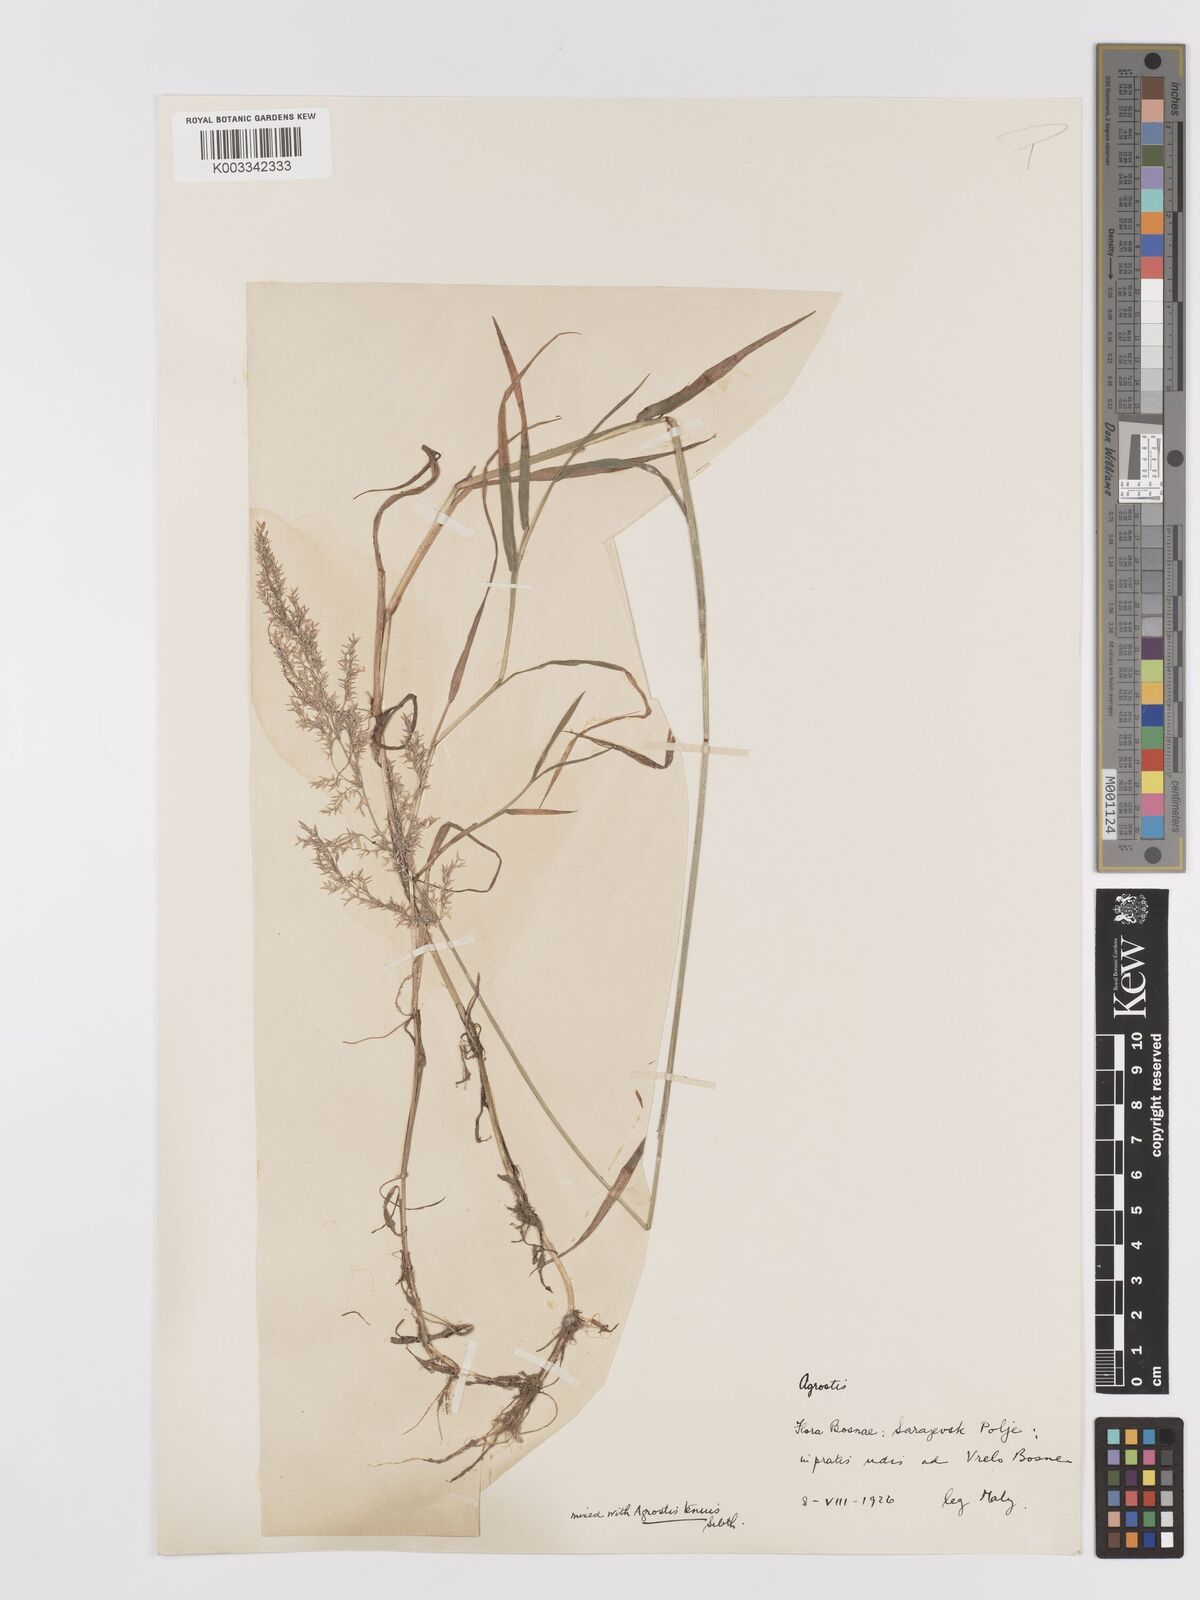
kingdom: Plantae
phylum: Tracheophyta
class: Liliopsida
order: Poales
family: Poaceae
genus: Agrostis
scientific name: Agrostis gigantea
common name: Black bent
